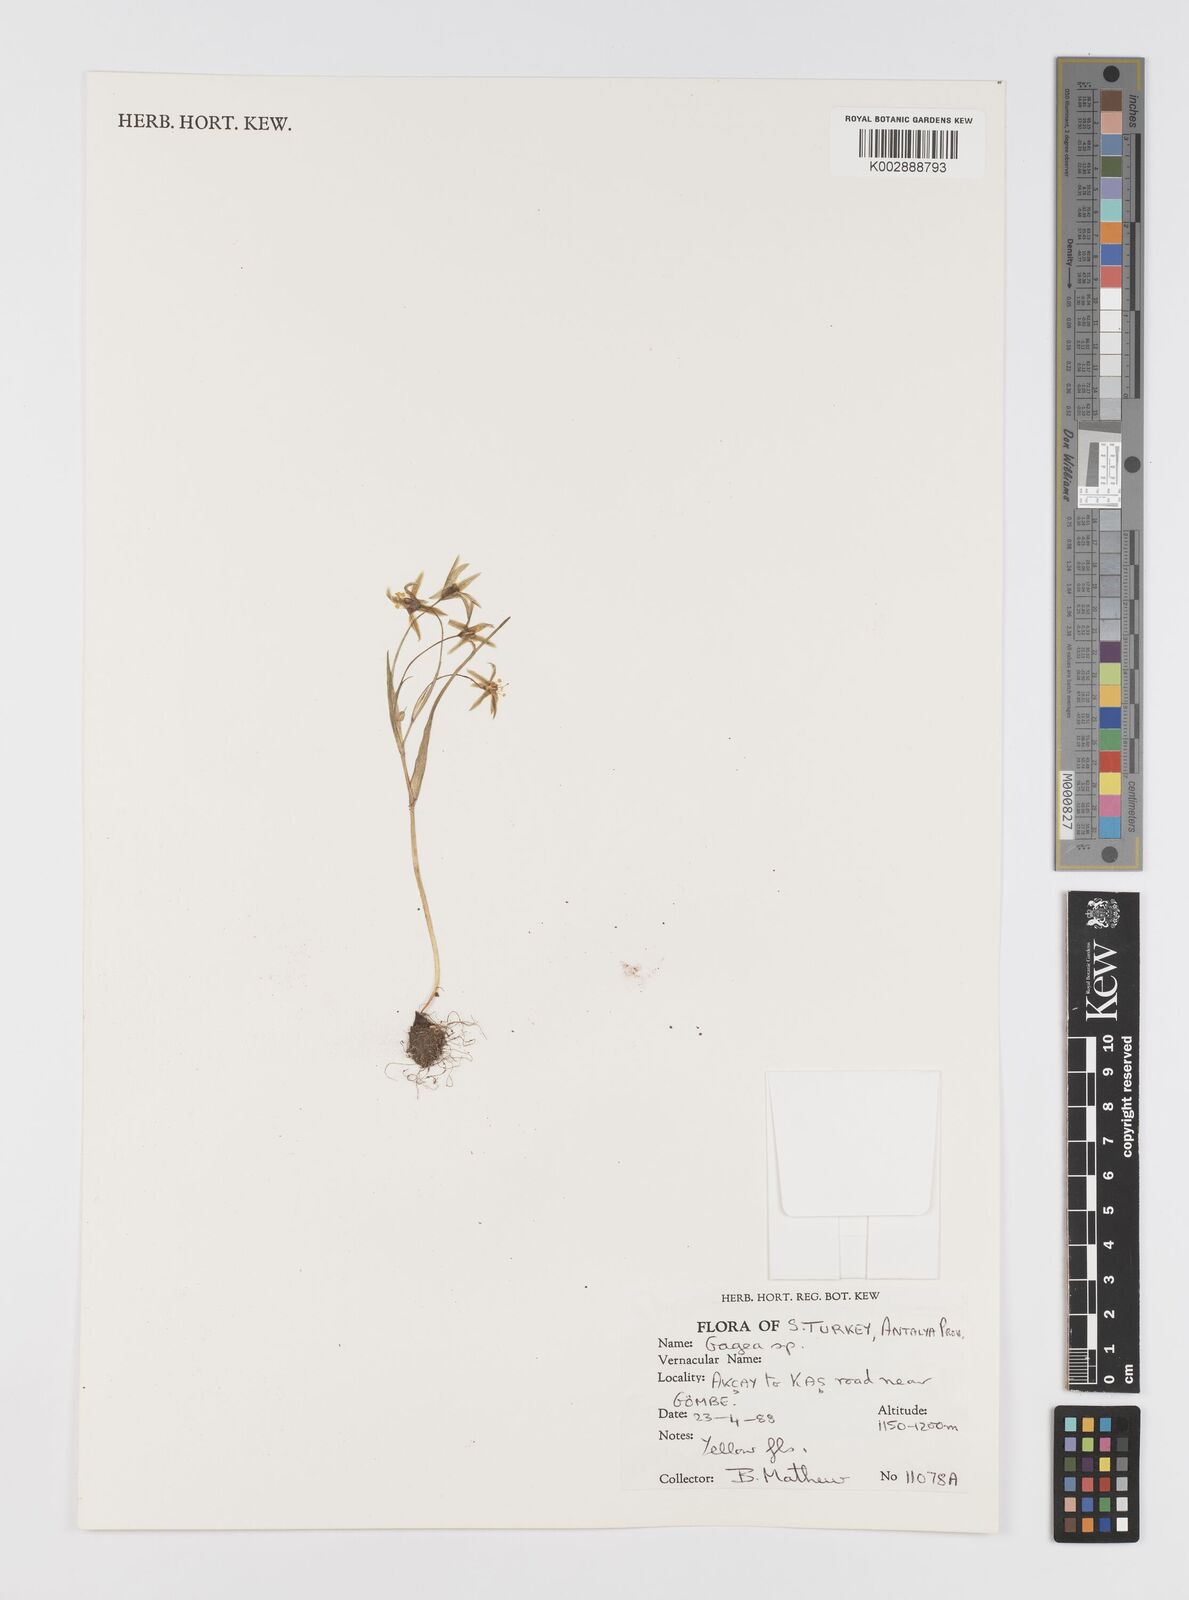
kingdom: Plantae
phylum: Tracheophyta
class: Liliopsida
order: Liliales
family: Liliaceae
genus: Gagea
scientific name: Gagea
